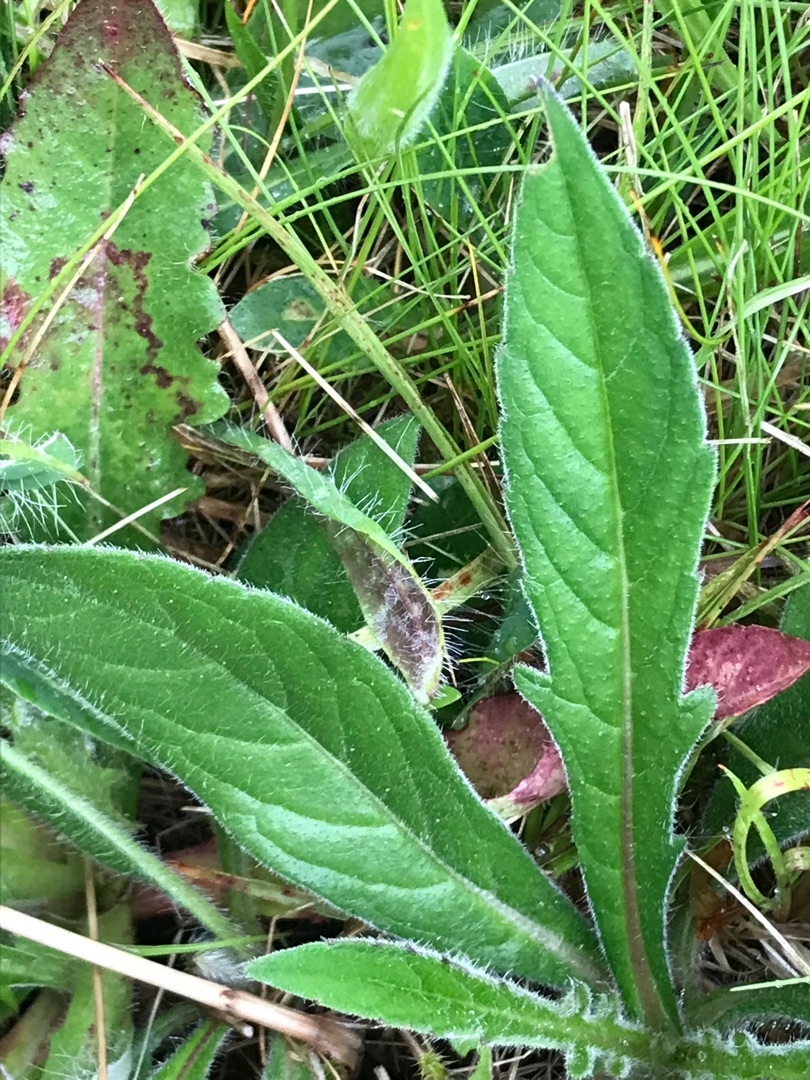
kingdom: Plantae
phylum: Tracheophyta
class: Magnoliopsida
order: Dipsacales
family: Caprifoliaceae
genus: Knautia
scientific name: Knautia arvensis
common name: Blåhat
